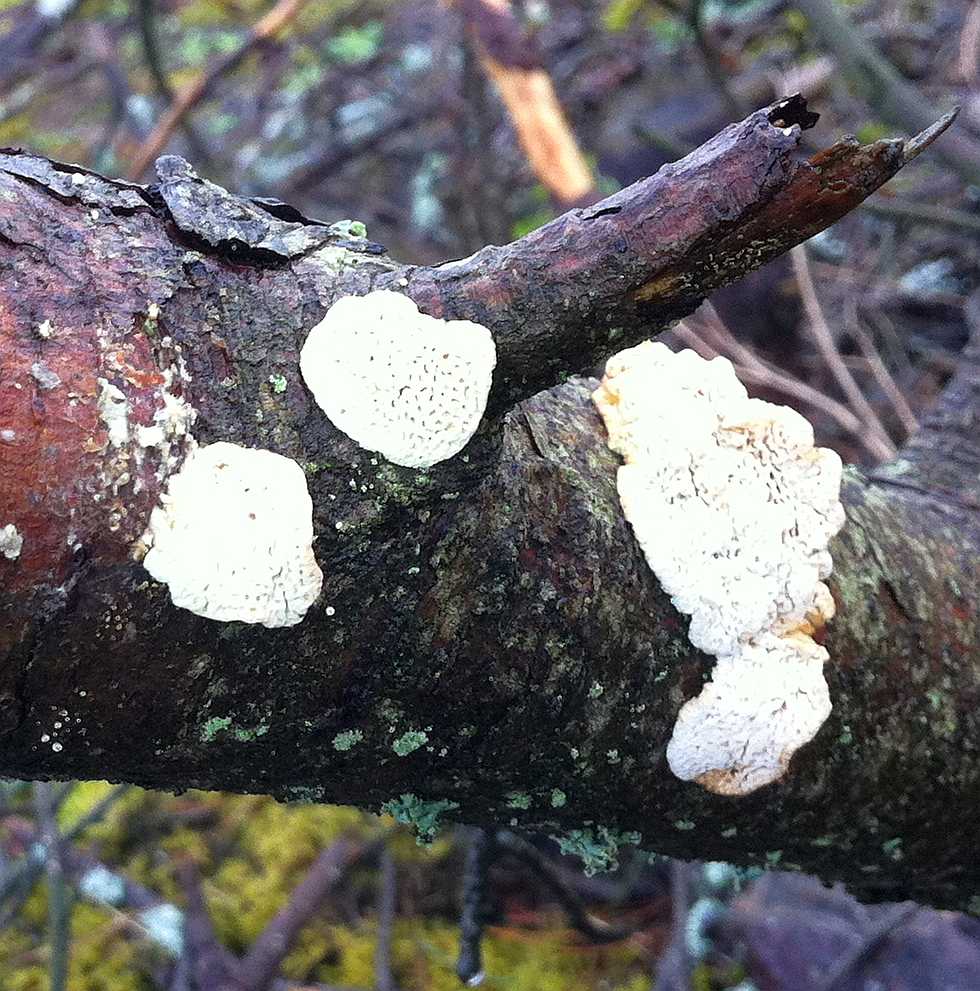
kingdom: Fungi
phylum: Basidiomycota
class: Agaricomycetes
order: Polyporales
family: Fomitopsidaceae
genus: Fomitopsis
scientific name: Fomitopsis
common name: fyrre-skiveporesvamp
